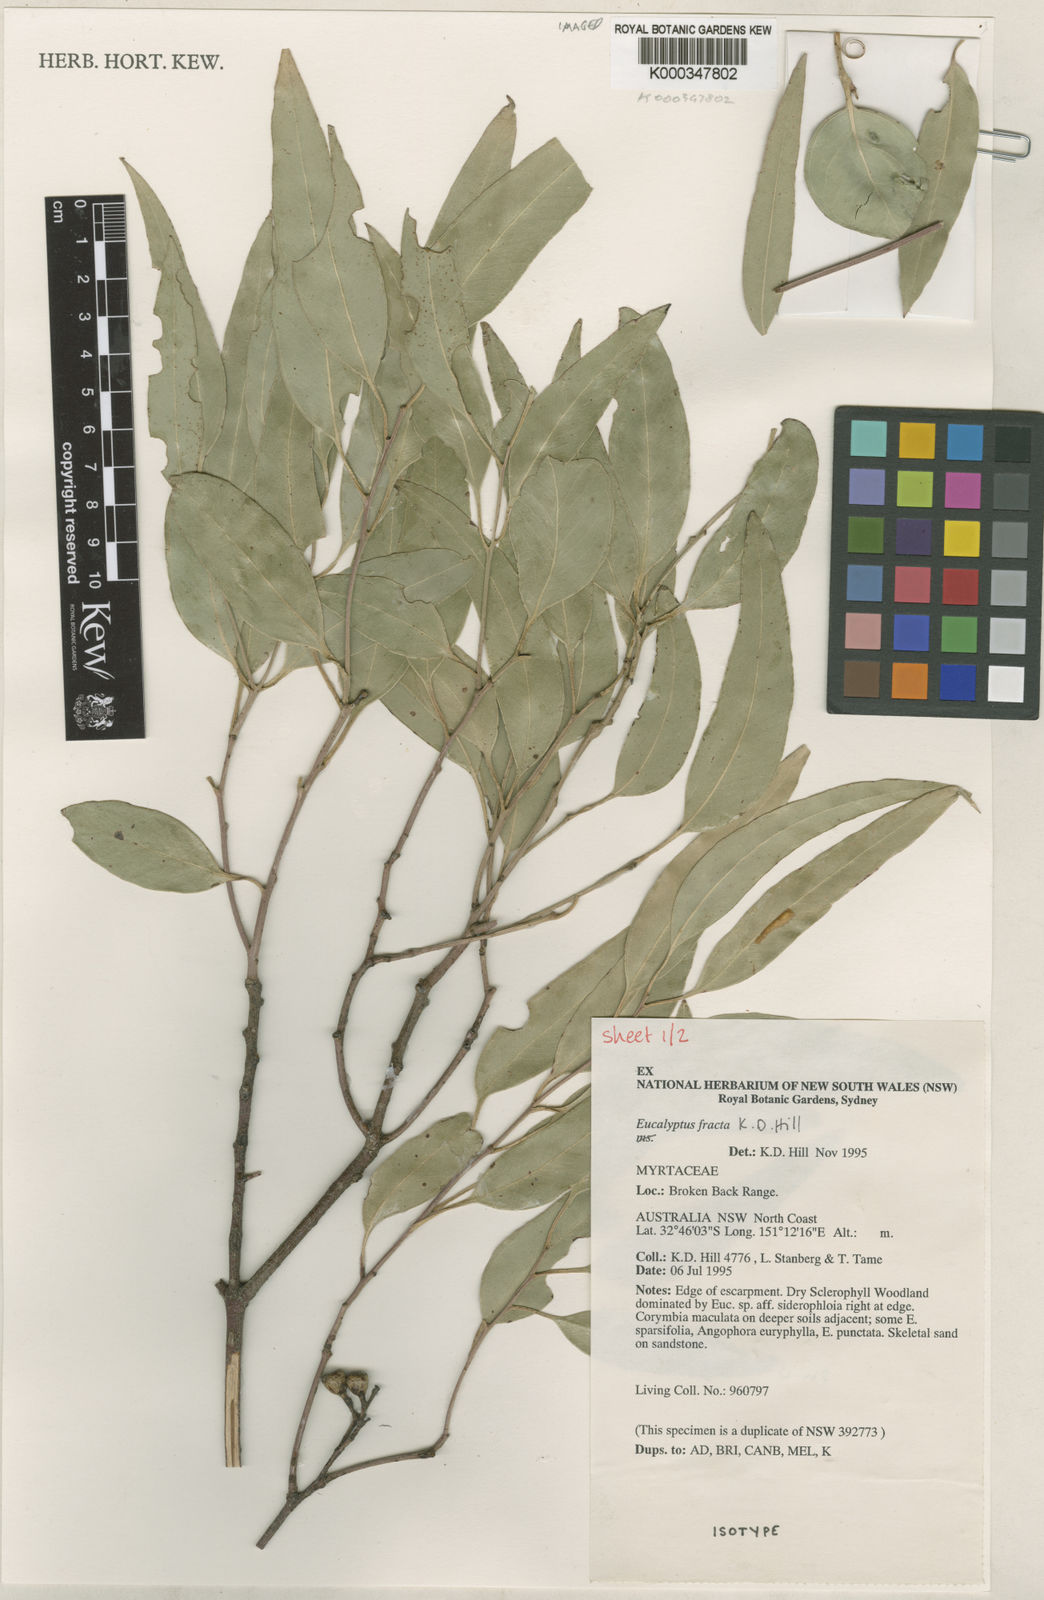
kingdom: Plantae
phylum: Tracheophyta
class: Magnoliopsida
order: Myrtales
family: Myrtaceae
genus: Eucalyptus
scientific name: Eucalyptus fracta
